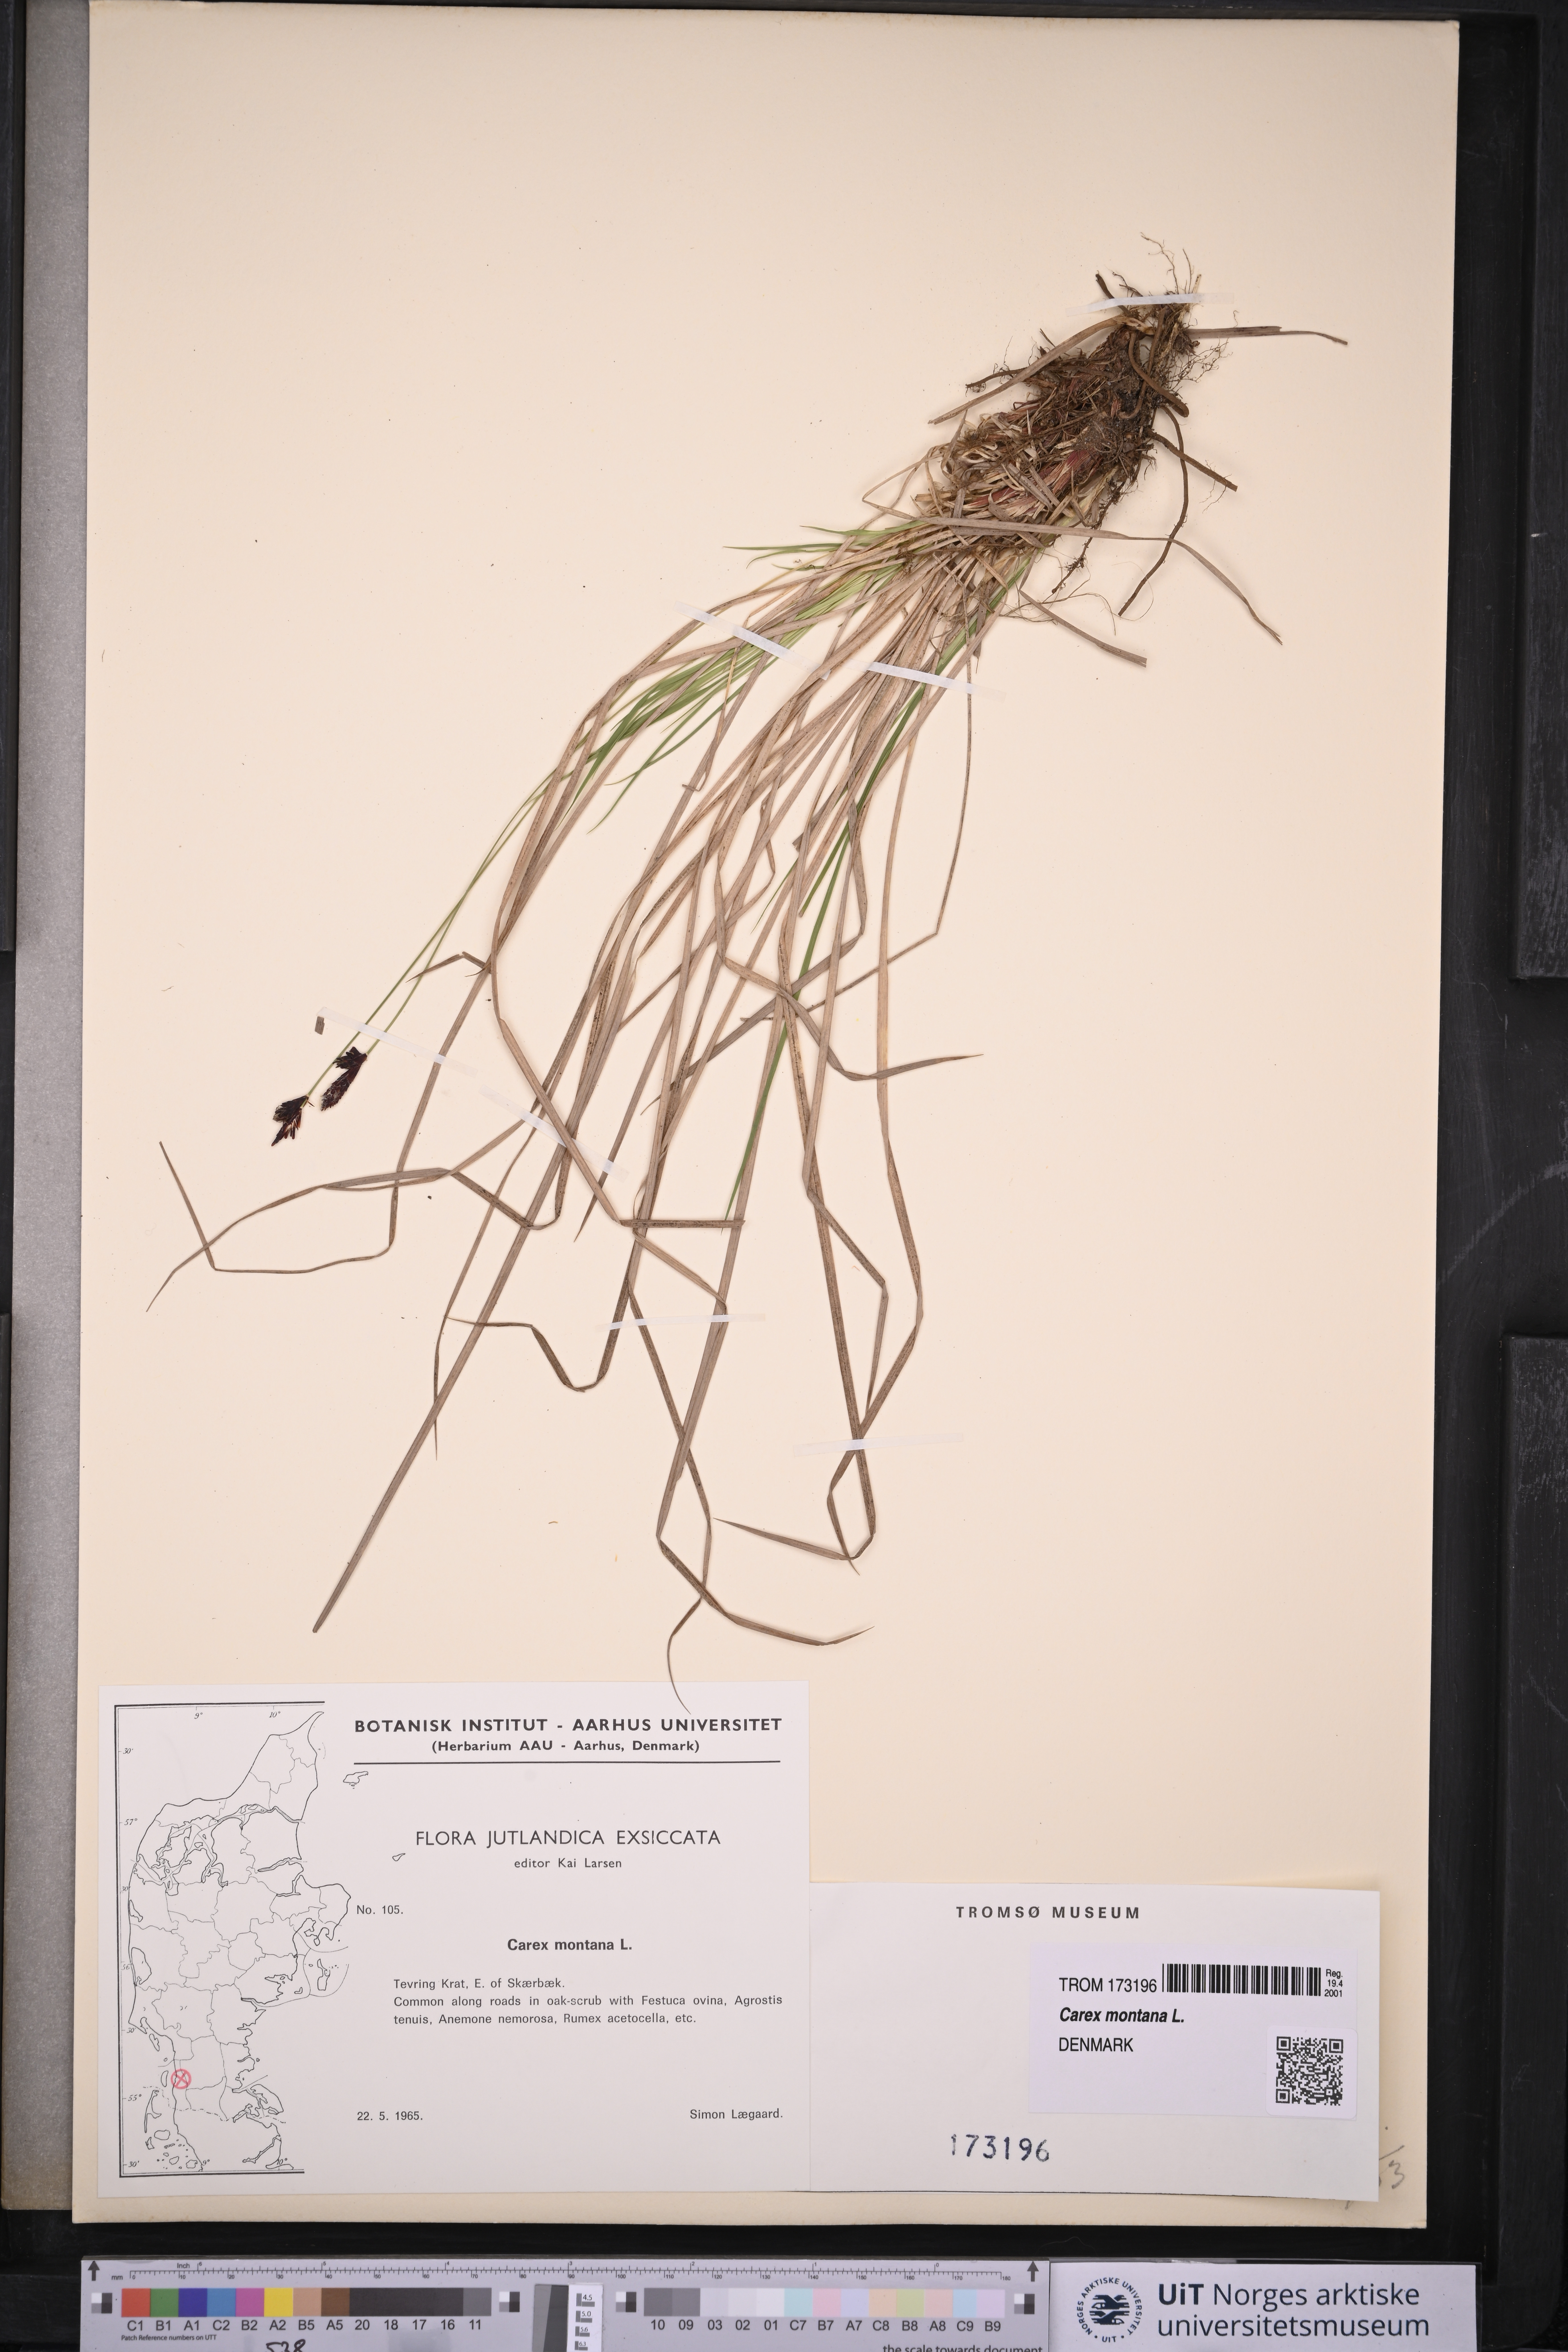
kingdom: Plantae
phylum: Tracheophyta
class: Liliopsida
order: Poales
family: Cyperaceae
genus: Carex
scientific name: Carex montana
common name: Soft-leaved sedge
